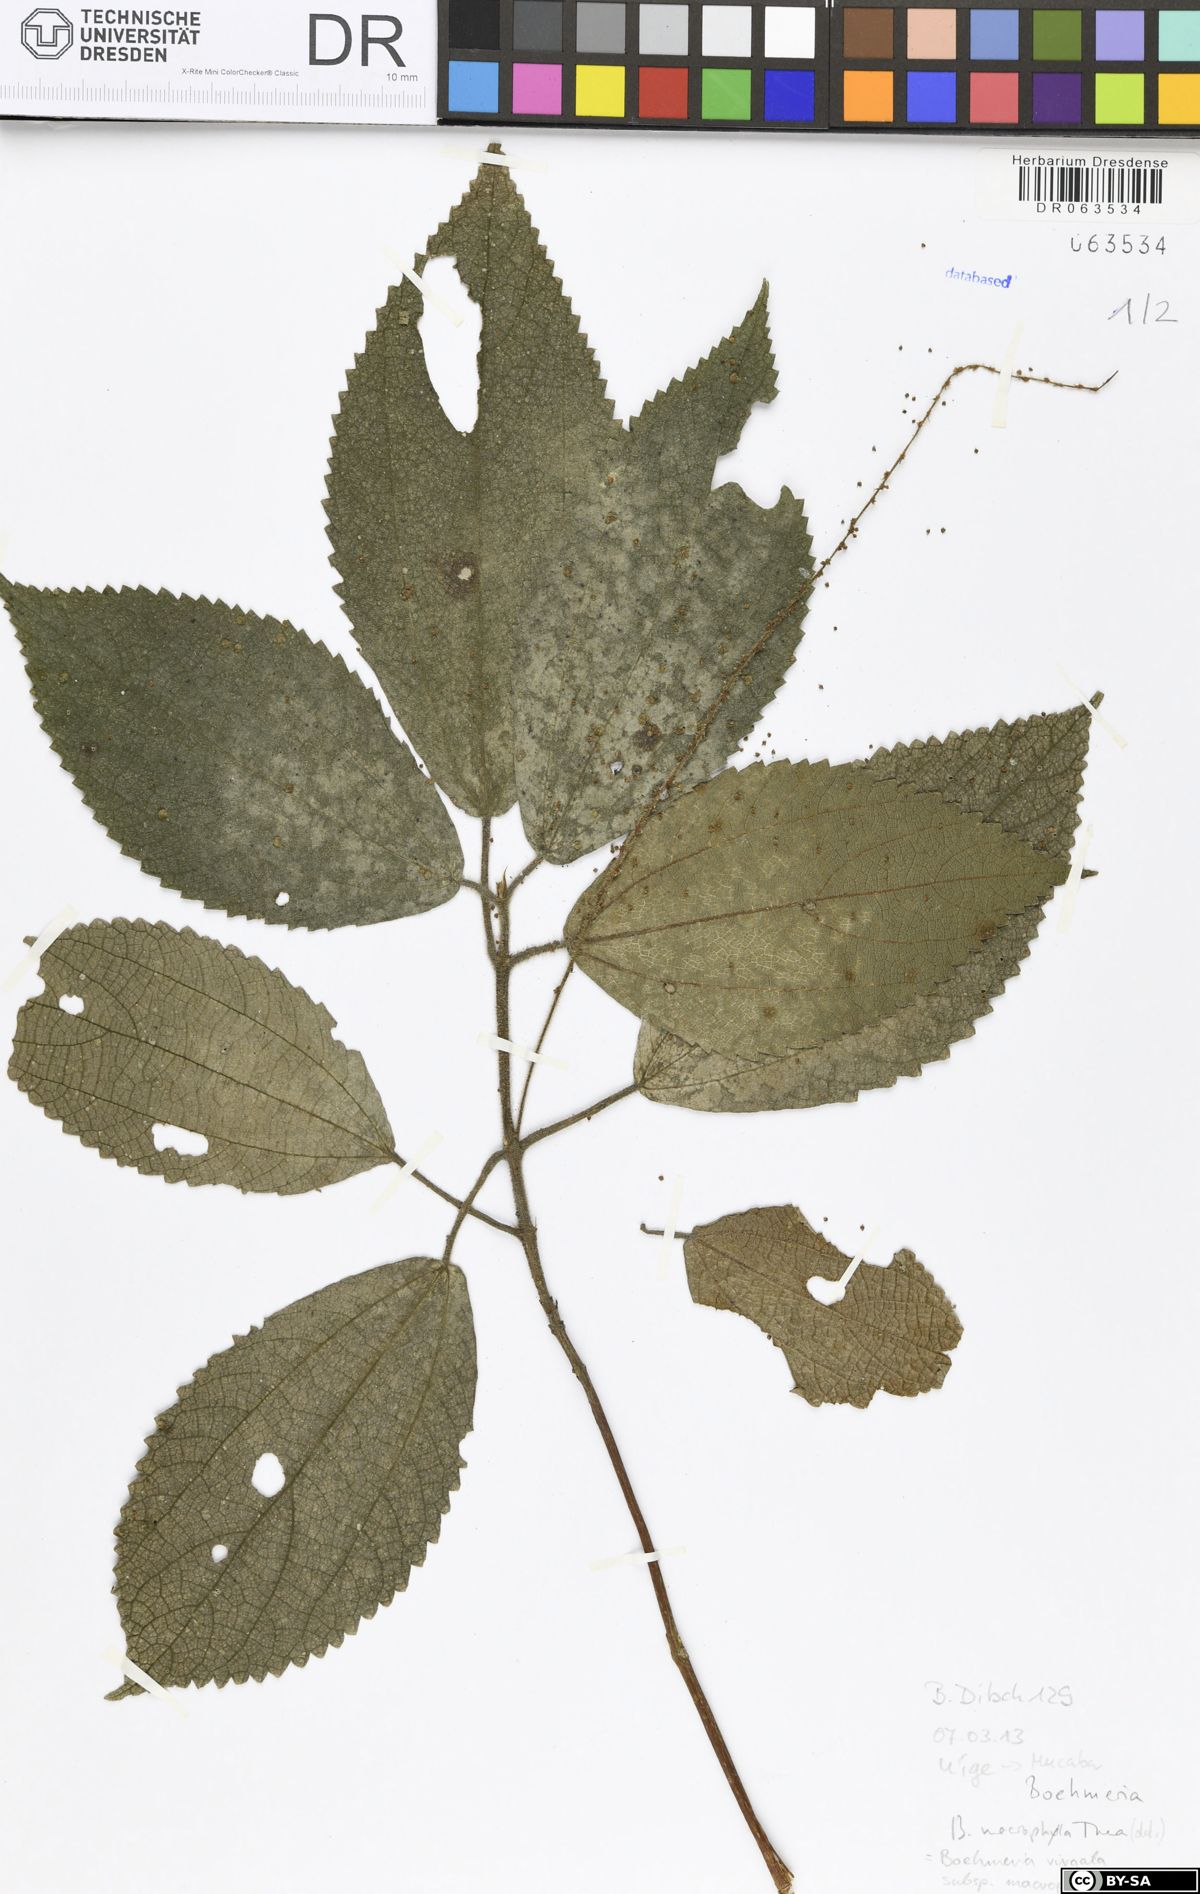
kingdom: Plantae
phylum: Tracheophyta
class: Magnoliopsida
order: Rosales
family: Urticaceae
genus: Boehmeria
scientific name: Boehmeria virgata
